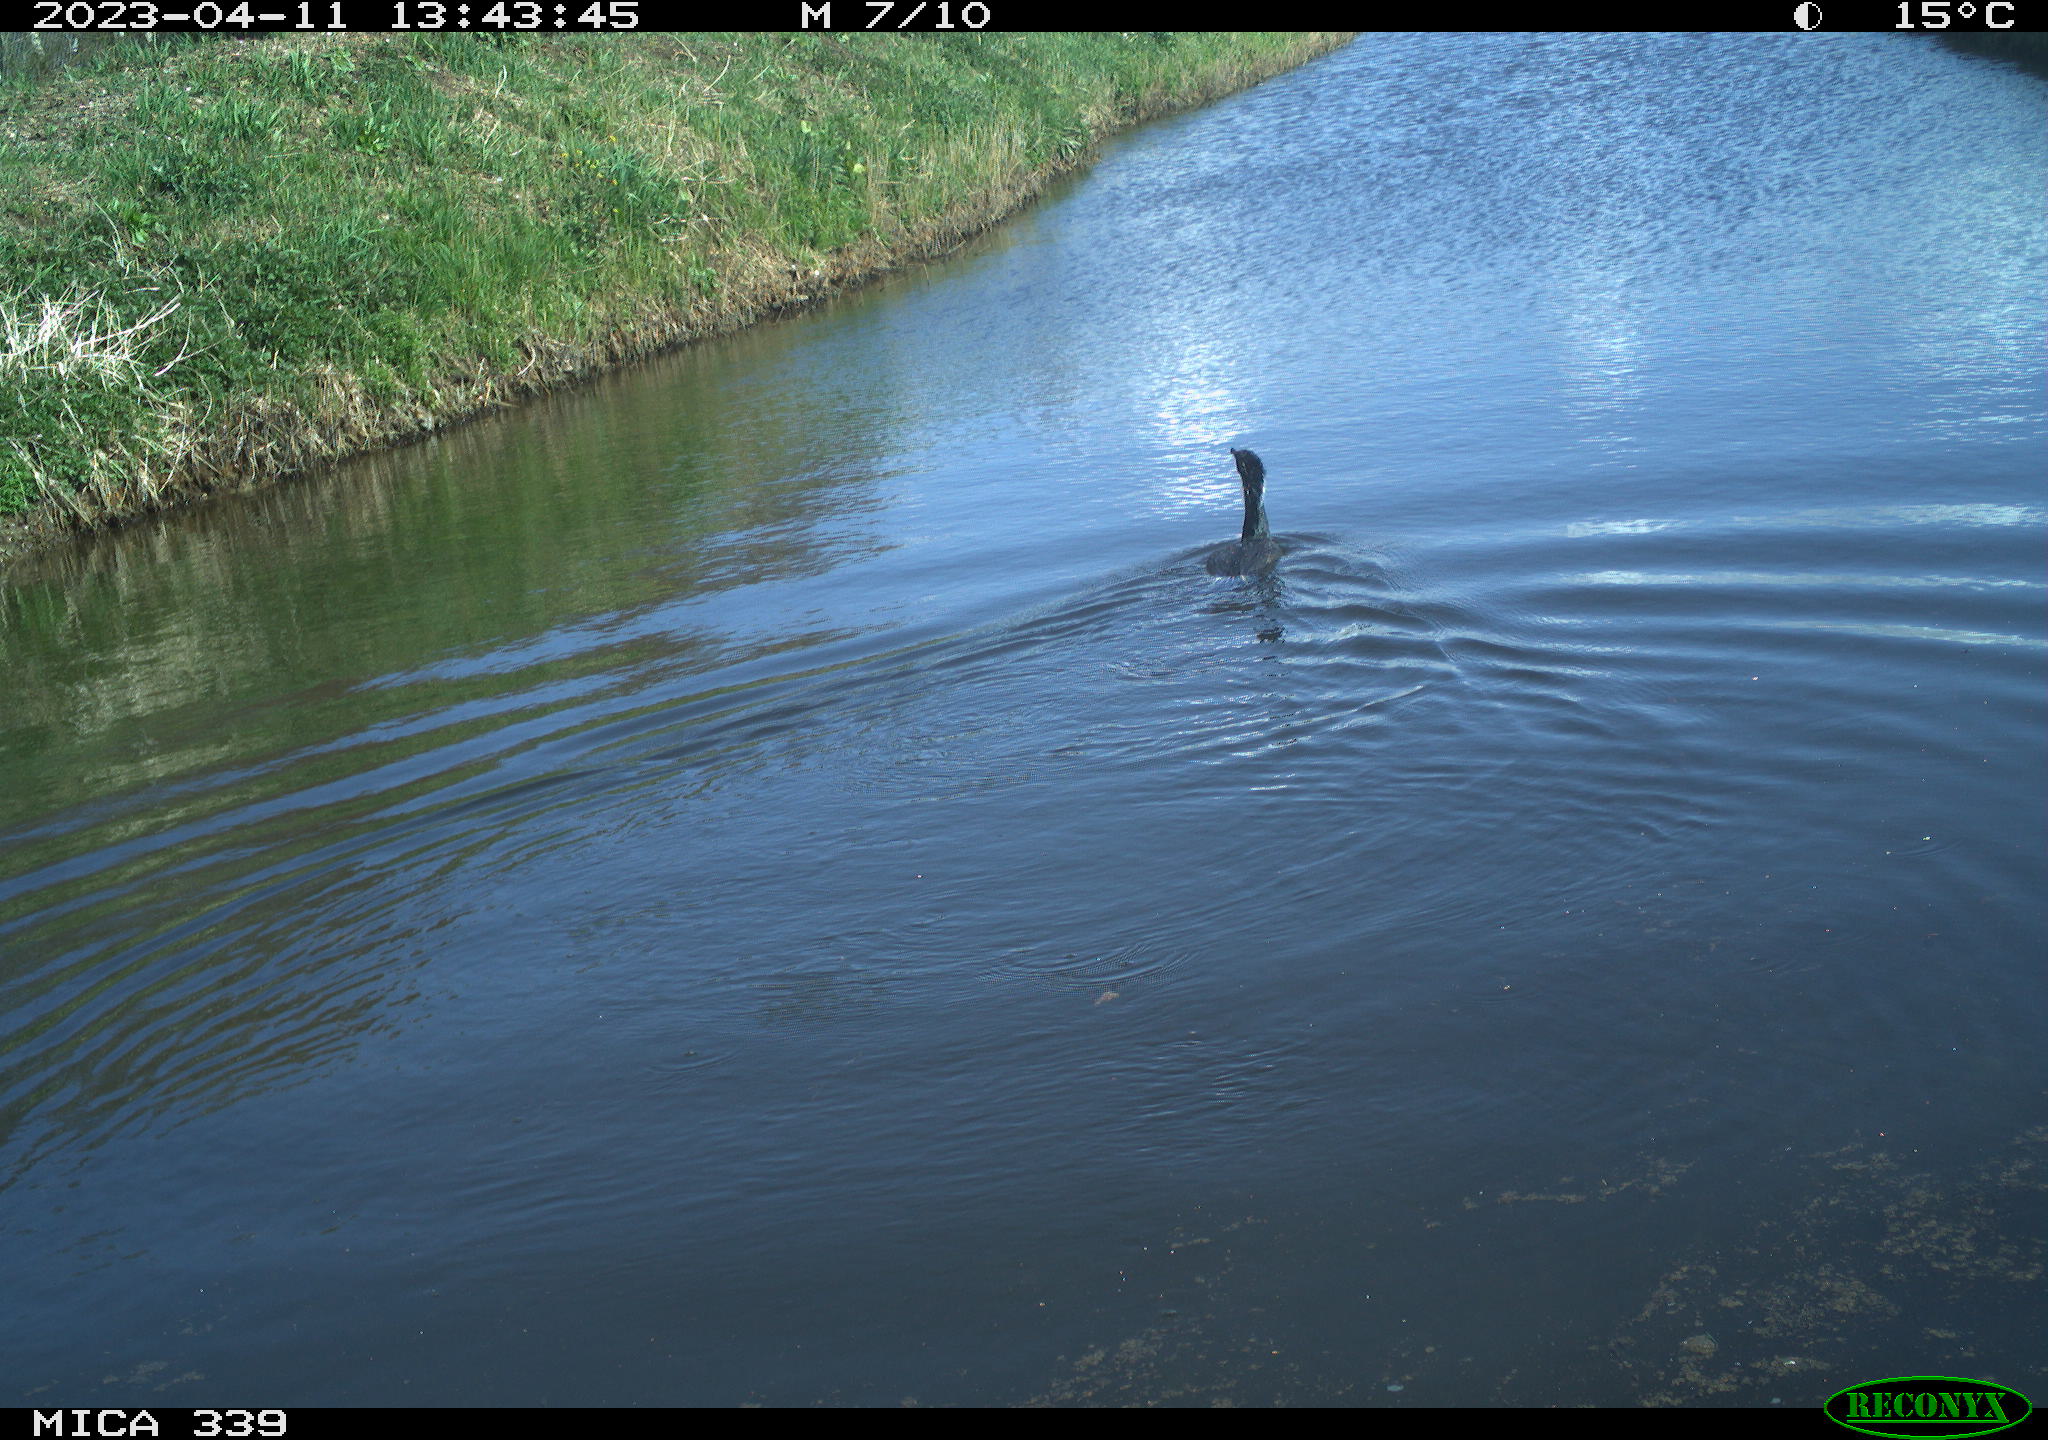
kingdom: Animalia
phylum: Chordata
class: Aves
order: Anseriformes
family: Anatidae
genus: Anas
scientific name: Anas
